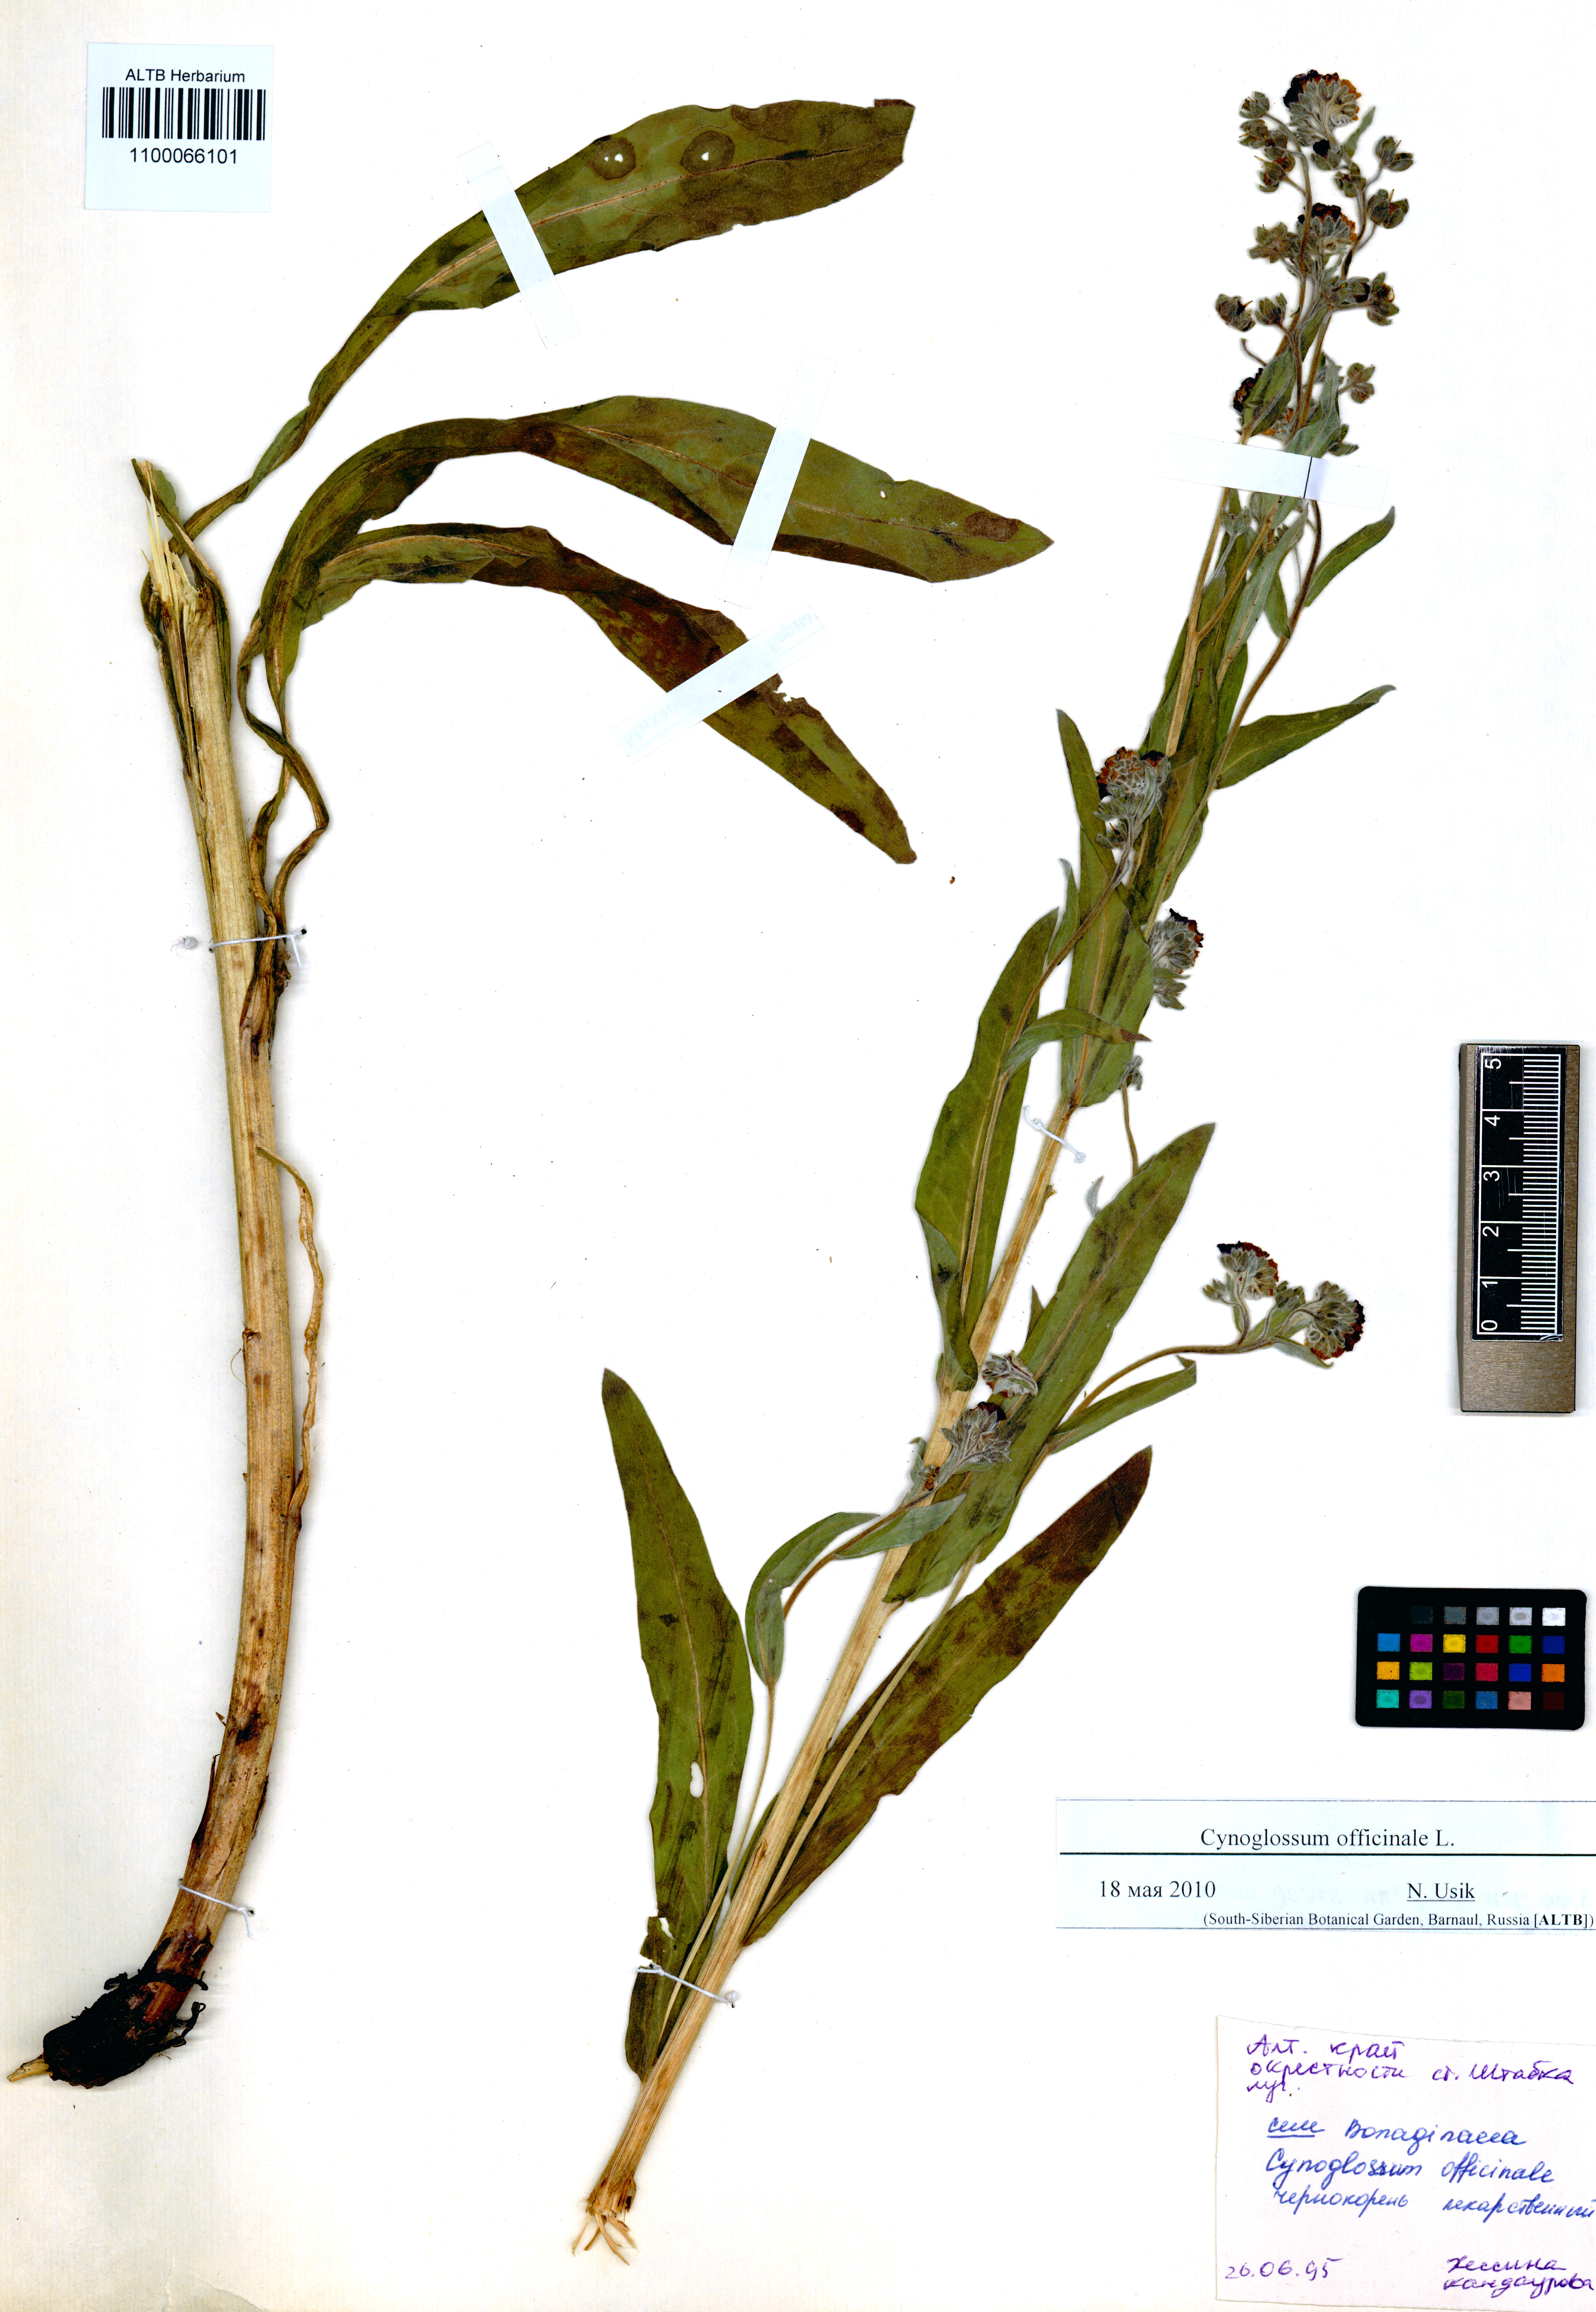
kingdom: Plantae
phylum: Tracheophyta
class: Magnoliopsida
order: Boraginales
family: Boraginaceae
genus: Cynoglossum
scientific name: Cynoglossum officinale
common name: Hound's-tongue
